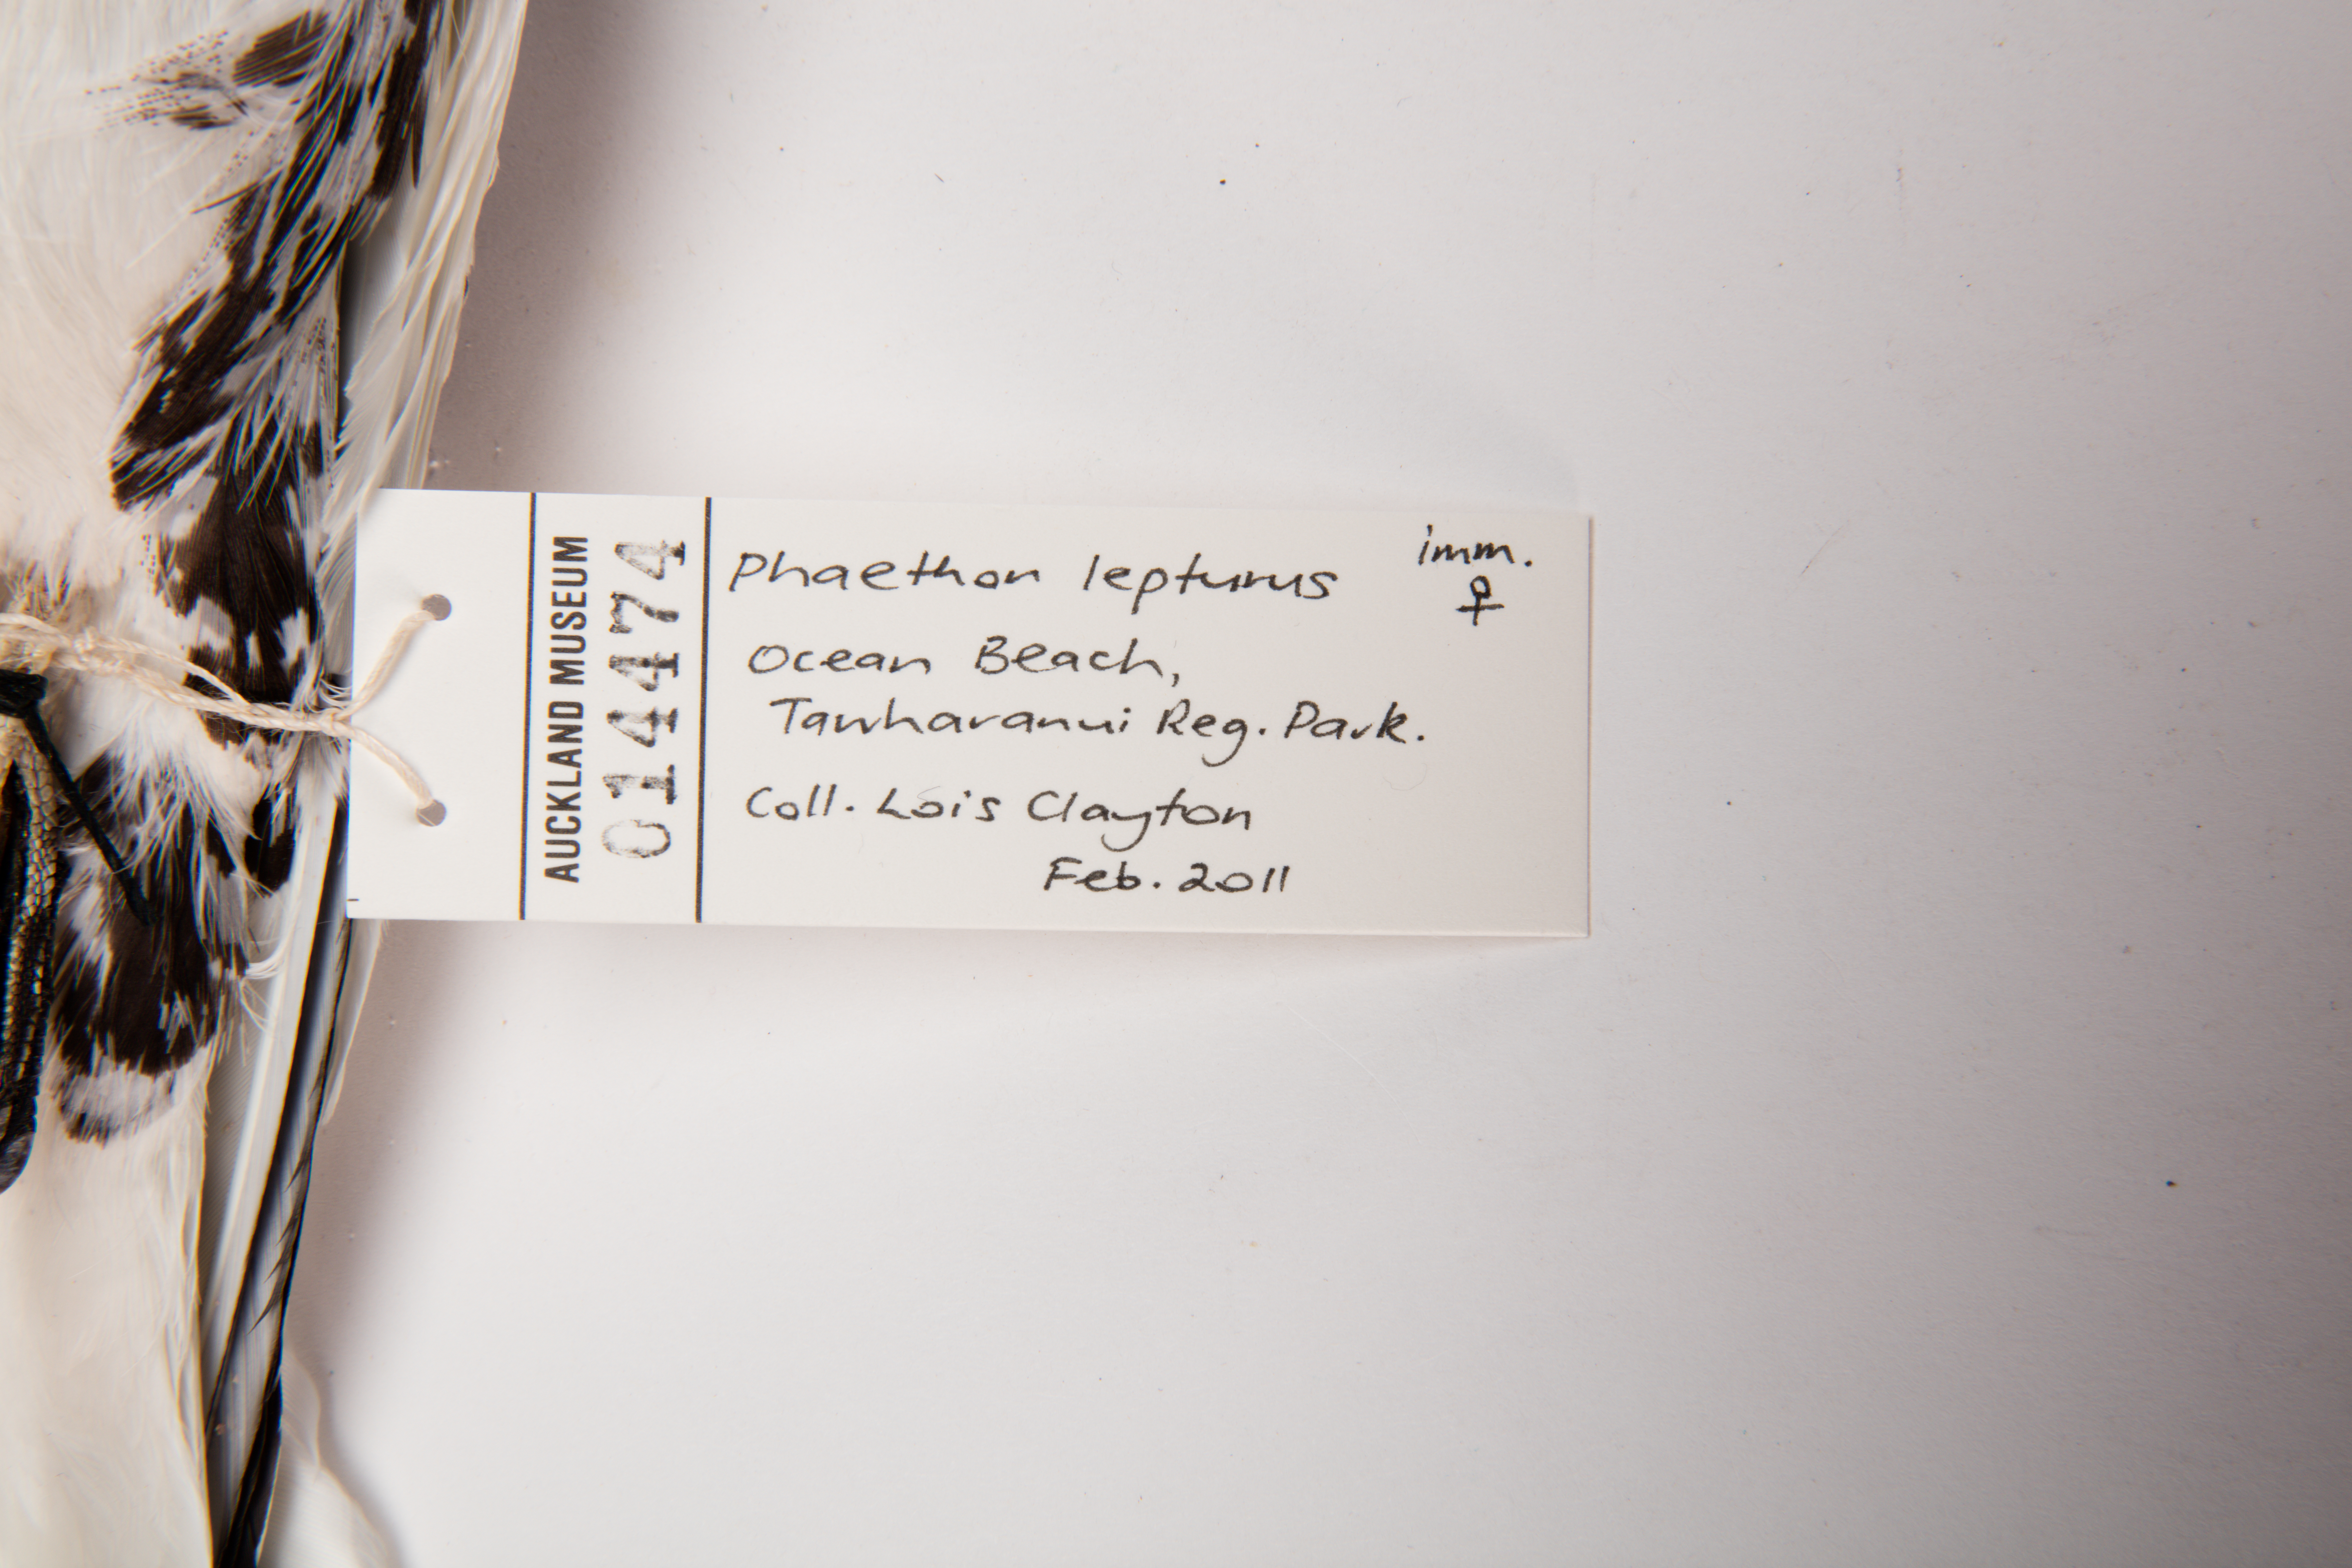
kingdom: Animalia
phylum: Chordata
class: Aves
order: Phaethontiformes
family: Phaethontidae
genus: Phaethon
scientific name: Phaethon lepturus
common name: White-tailed tropicbird
